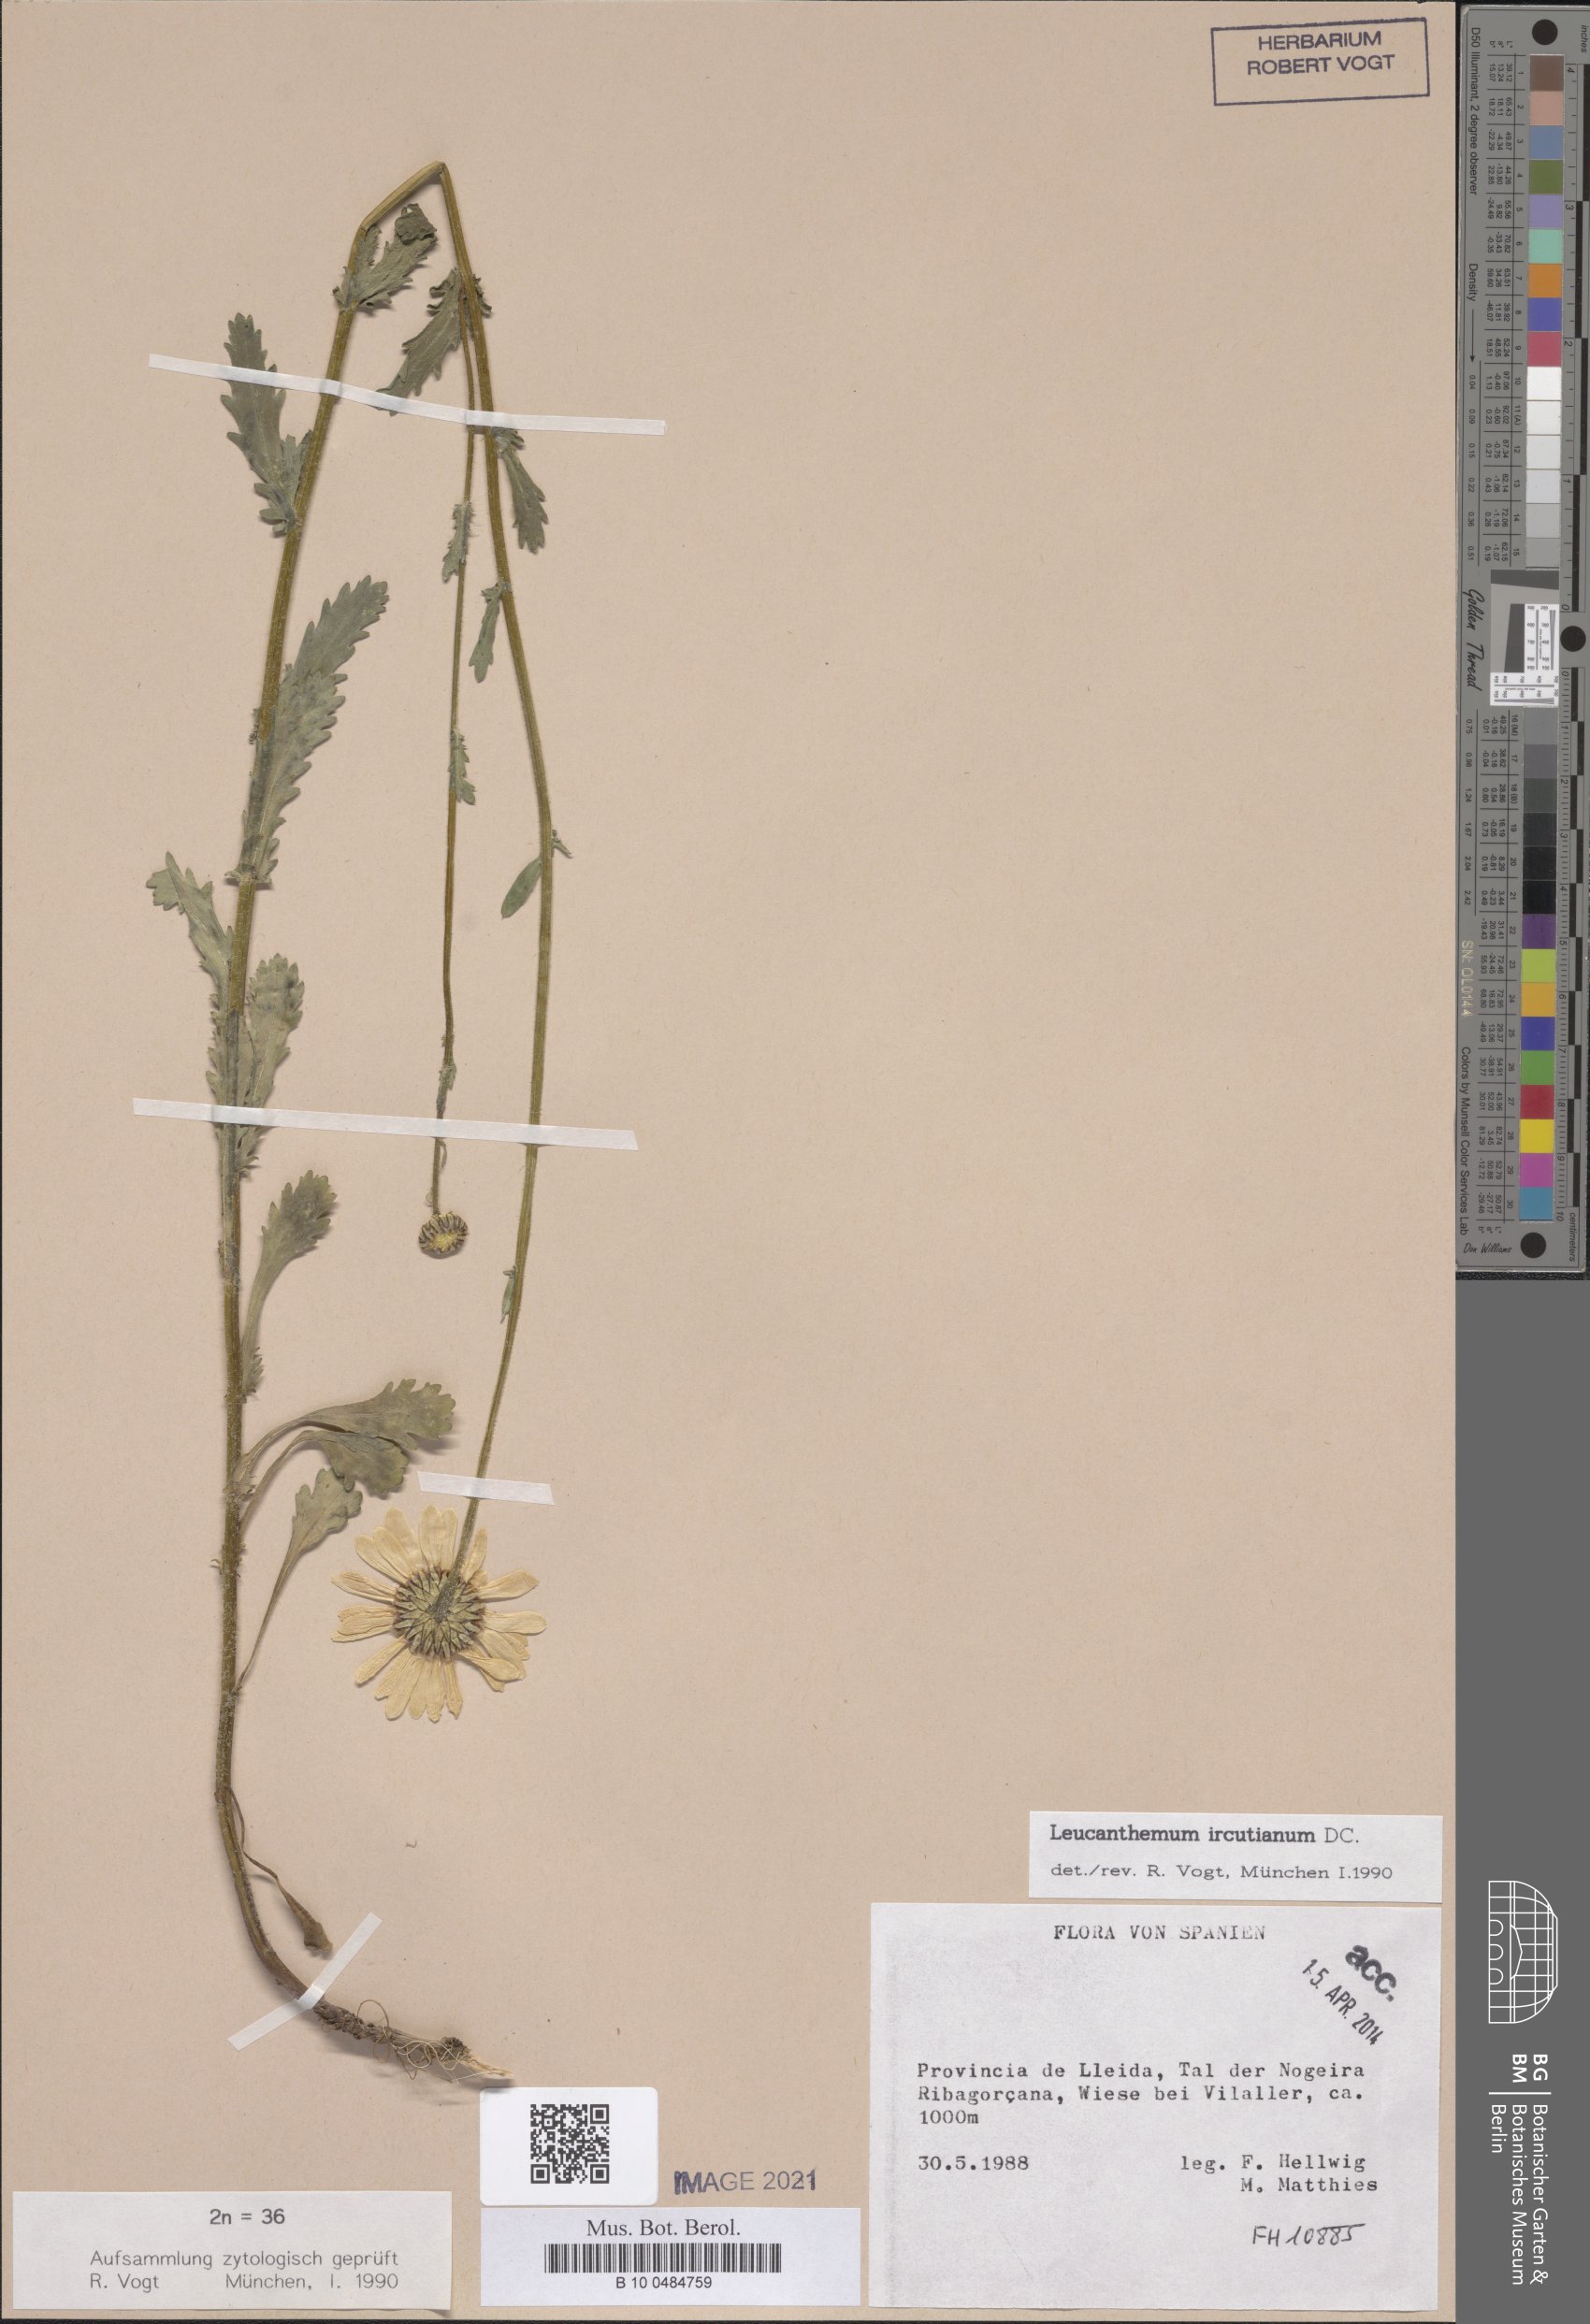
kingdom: Plantae
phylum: Tracheophyta
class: Magnoliopsida
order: Asterales
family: Asteraceae
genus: Leucanthemum
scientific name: Leucanthemum ircutianum
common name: Daisy
